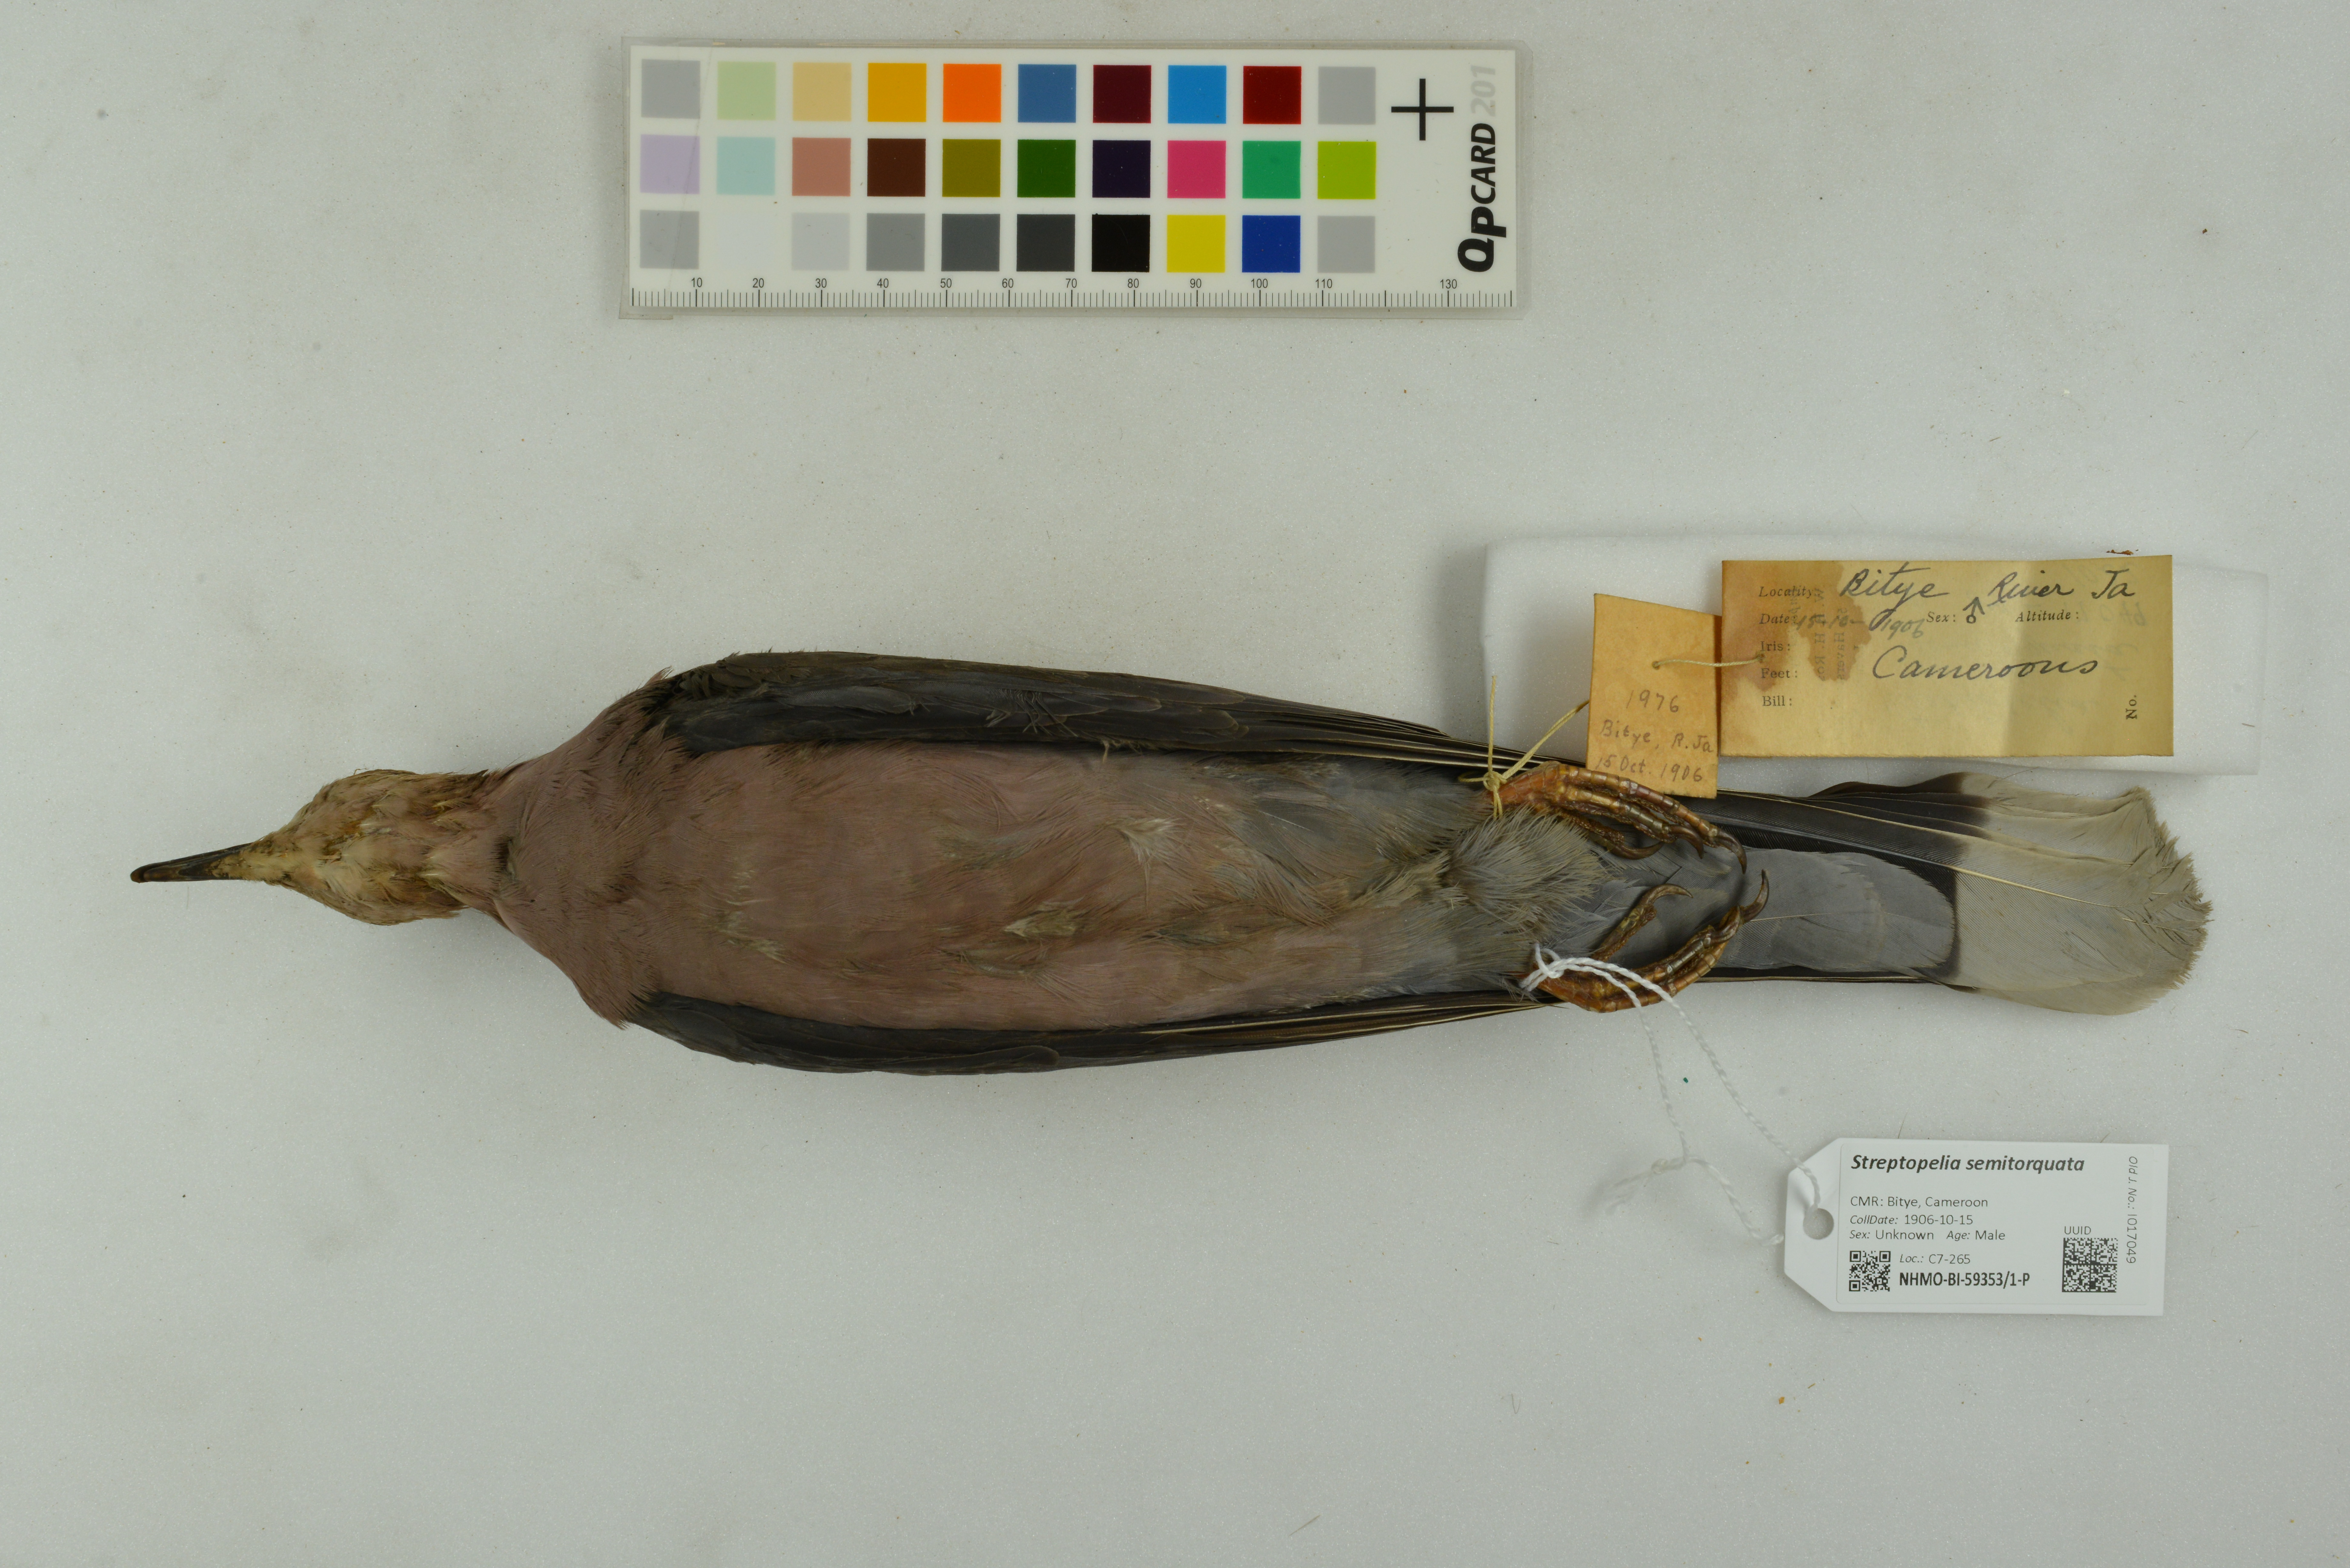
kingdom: Animalia
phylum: Chordata
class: Aves
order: Columbiformes
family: Columbidae
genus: Streptopelia
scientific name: Streptopelia semitorquata
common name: Red-eyed dove
